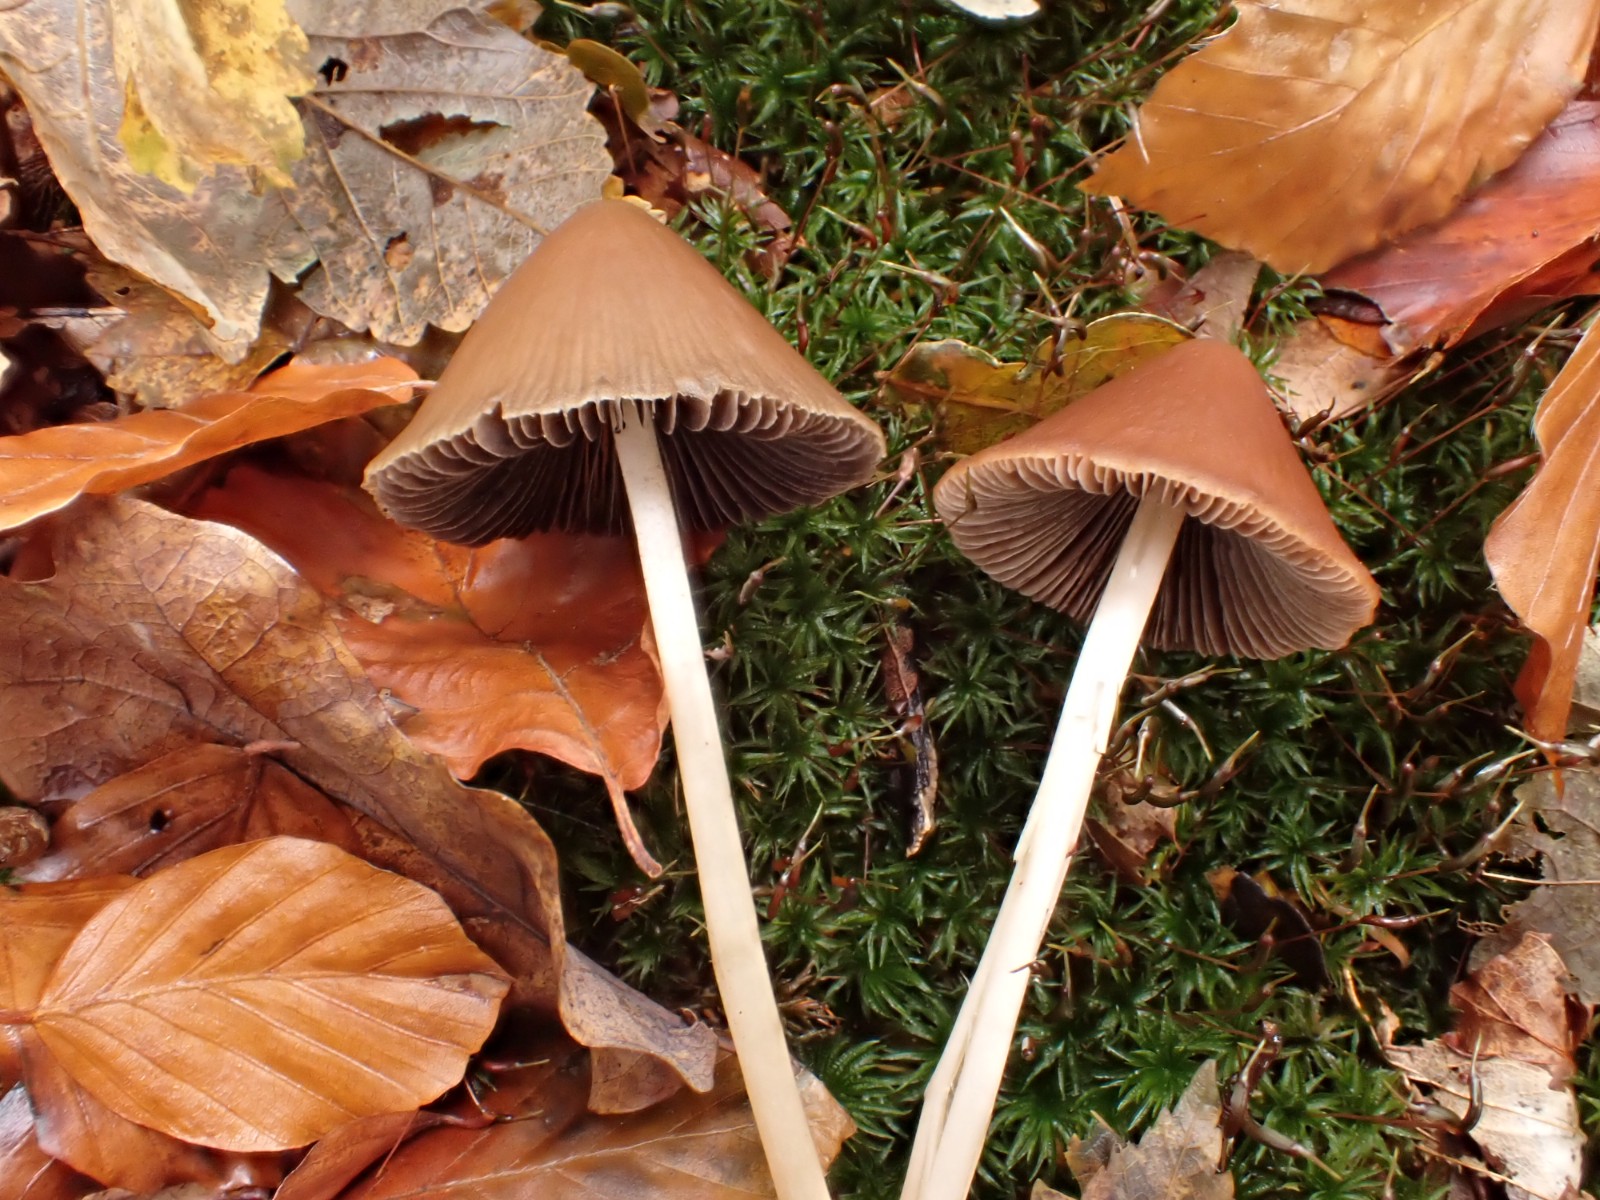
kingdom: Fungi
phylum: Basidiomycota
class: Agaricomycetes
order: Agaricales
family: Psathyrellaceae
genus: Parasola
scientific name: Parasola conopilea
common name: kegle-hjulhat
